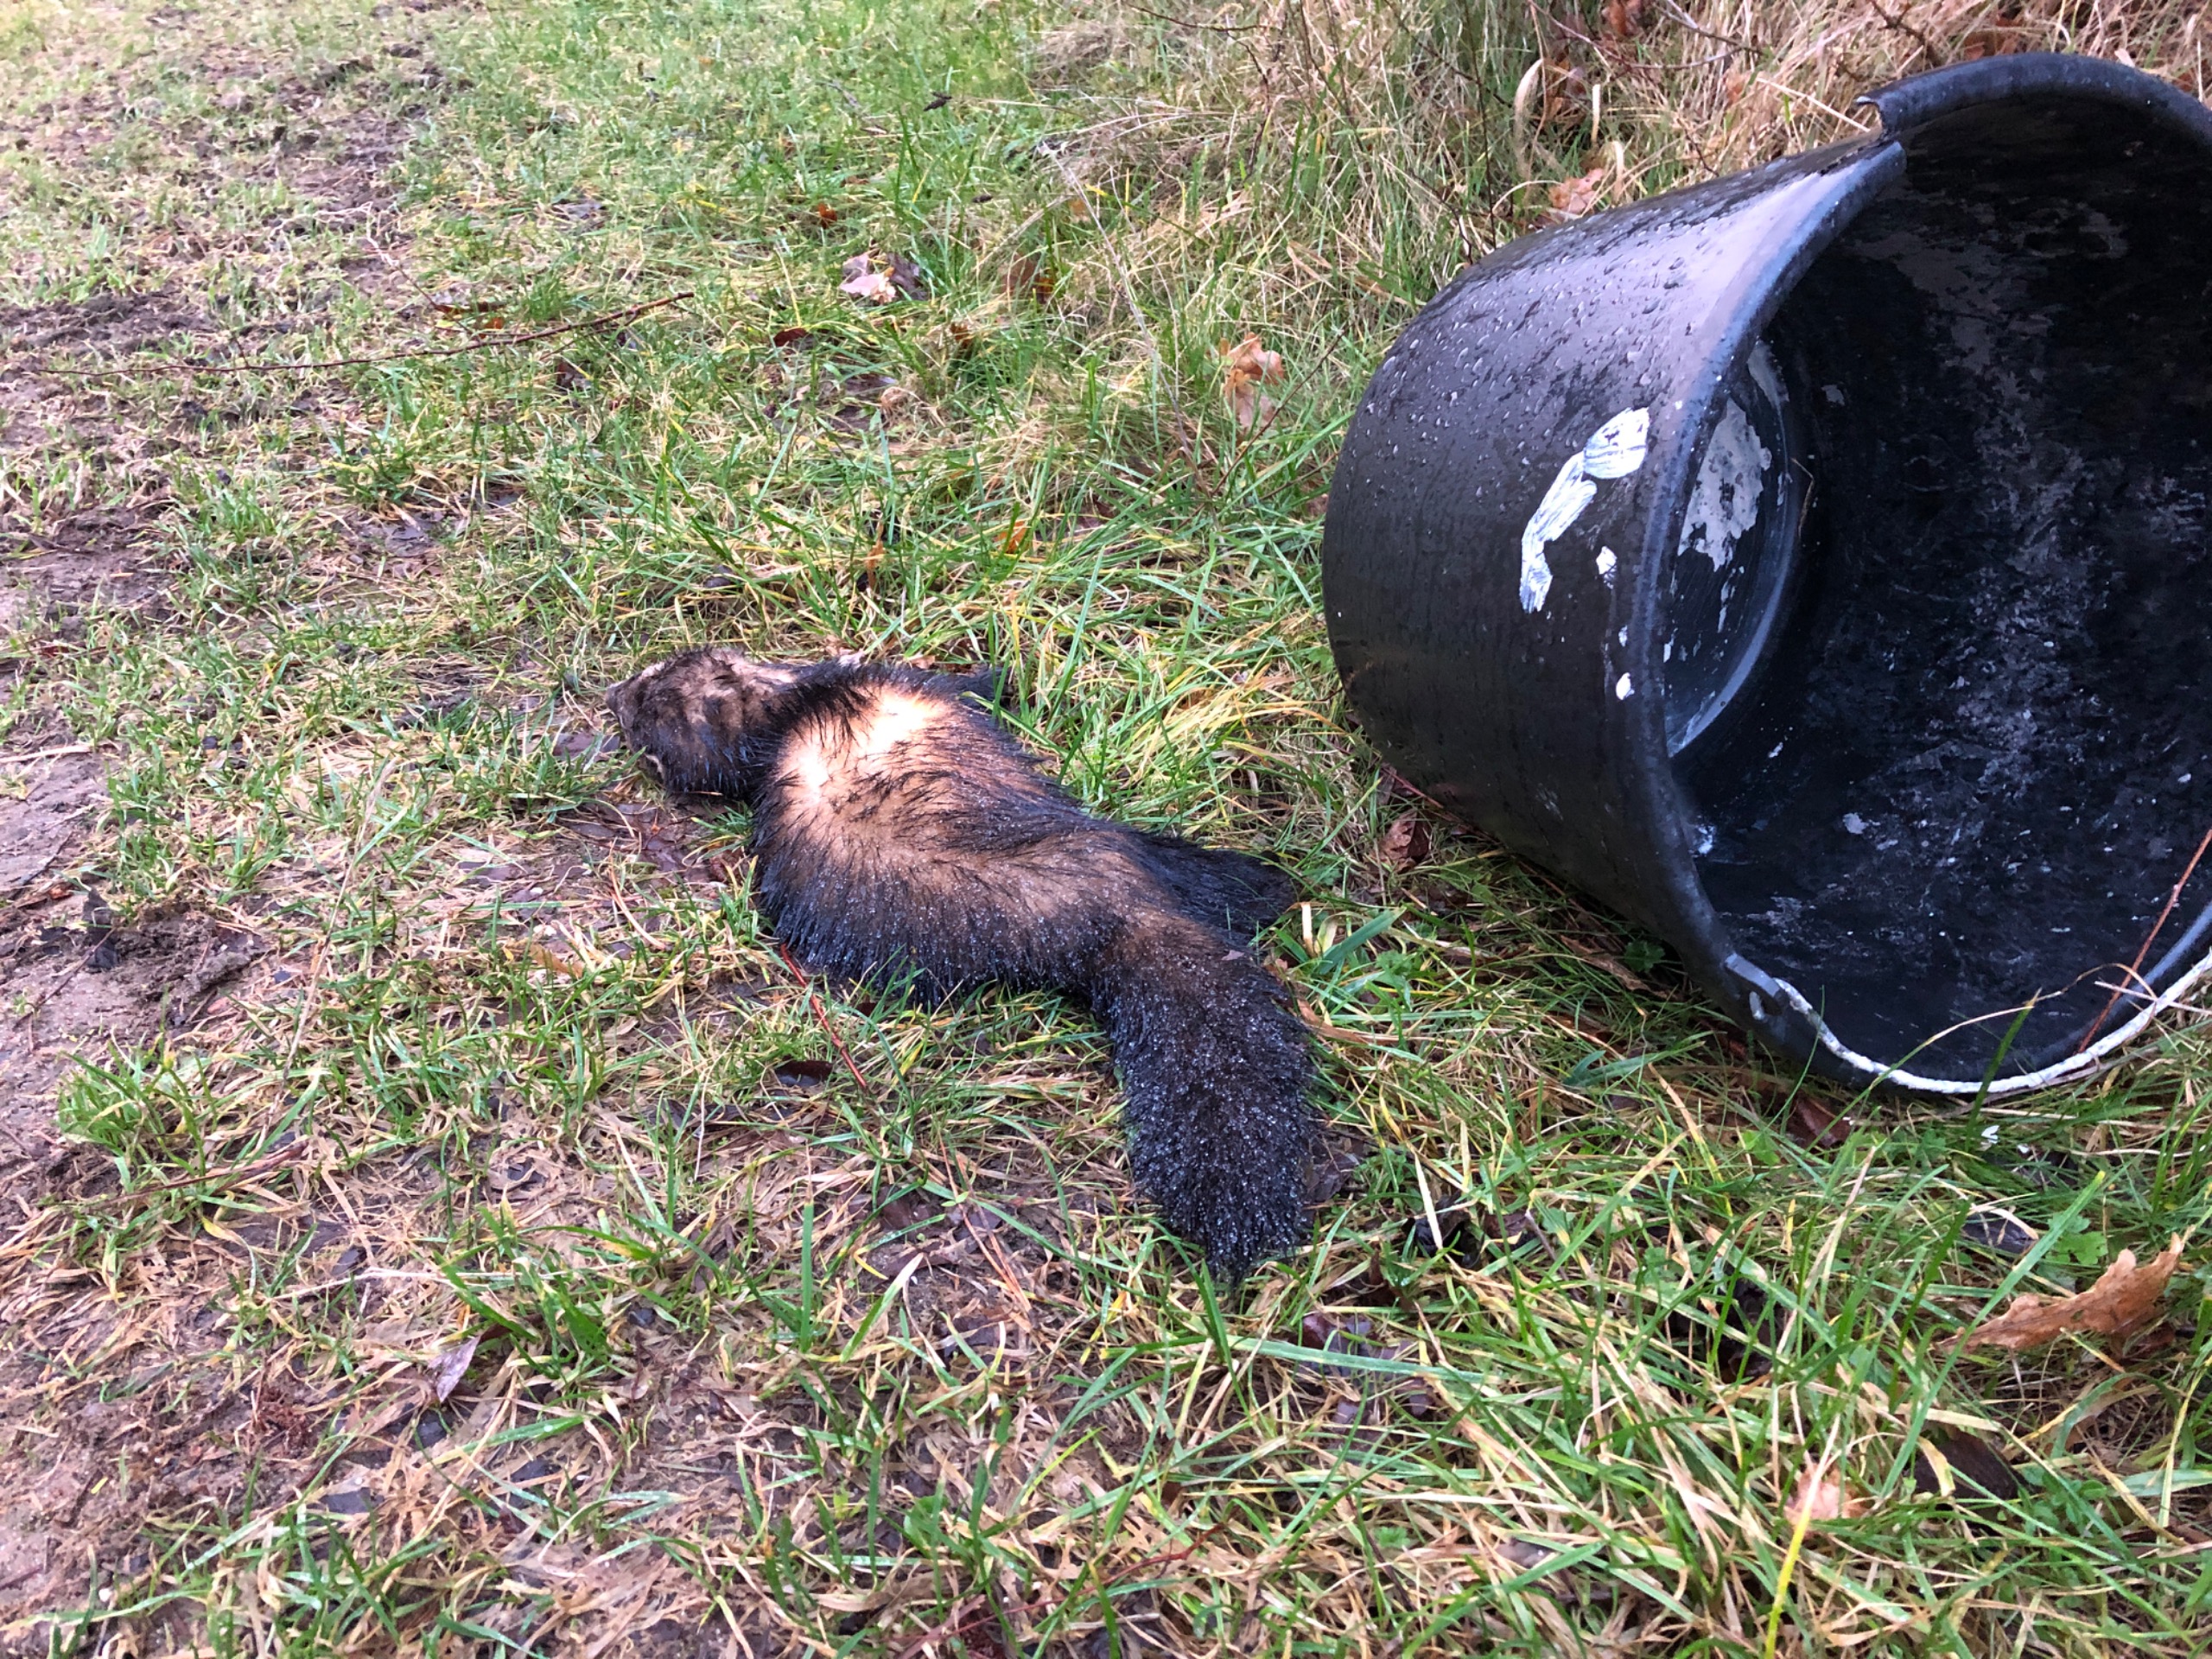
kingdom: Animalia
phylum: Chordata
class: Mammalia
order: Carnivora
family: Mustelidae
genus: Mustela
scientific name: Mustela putorius
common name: Ilder
